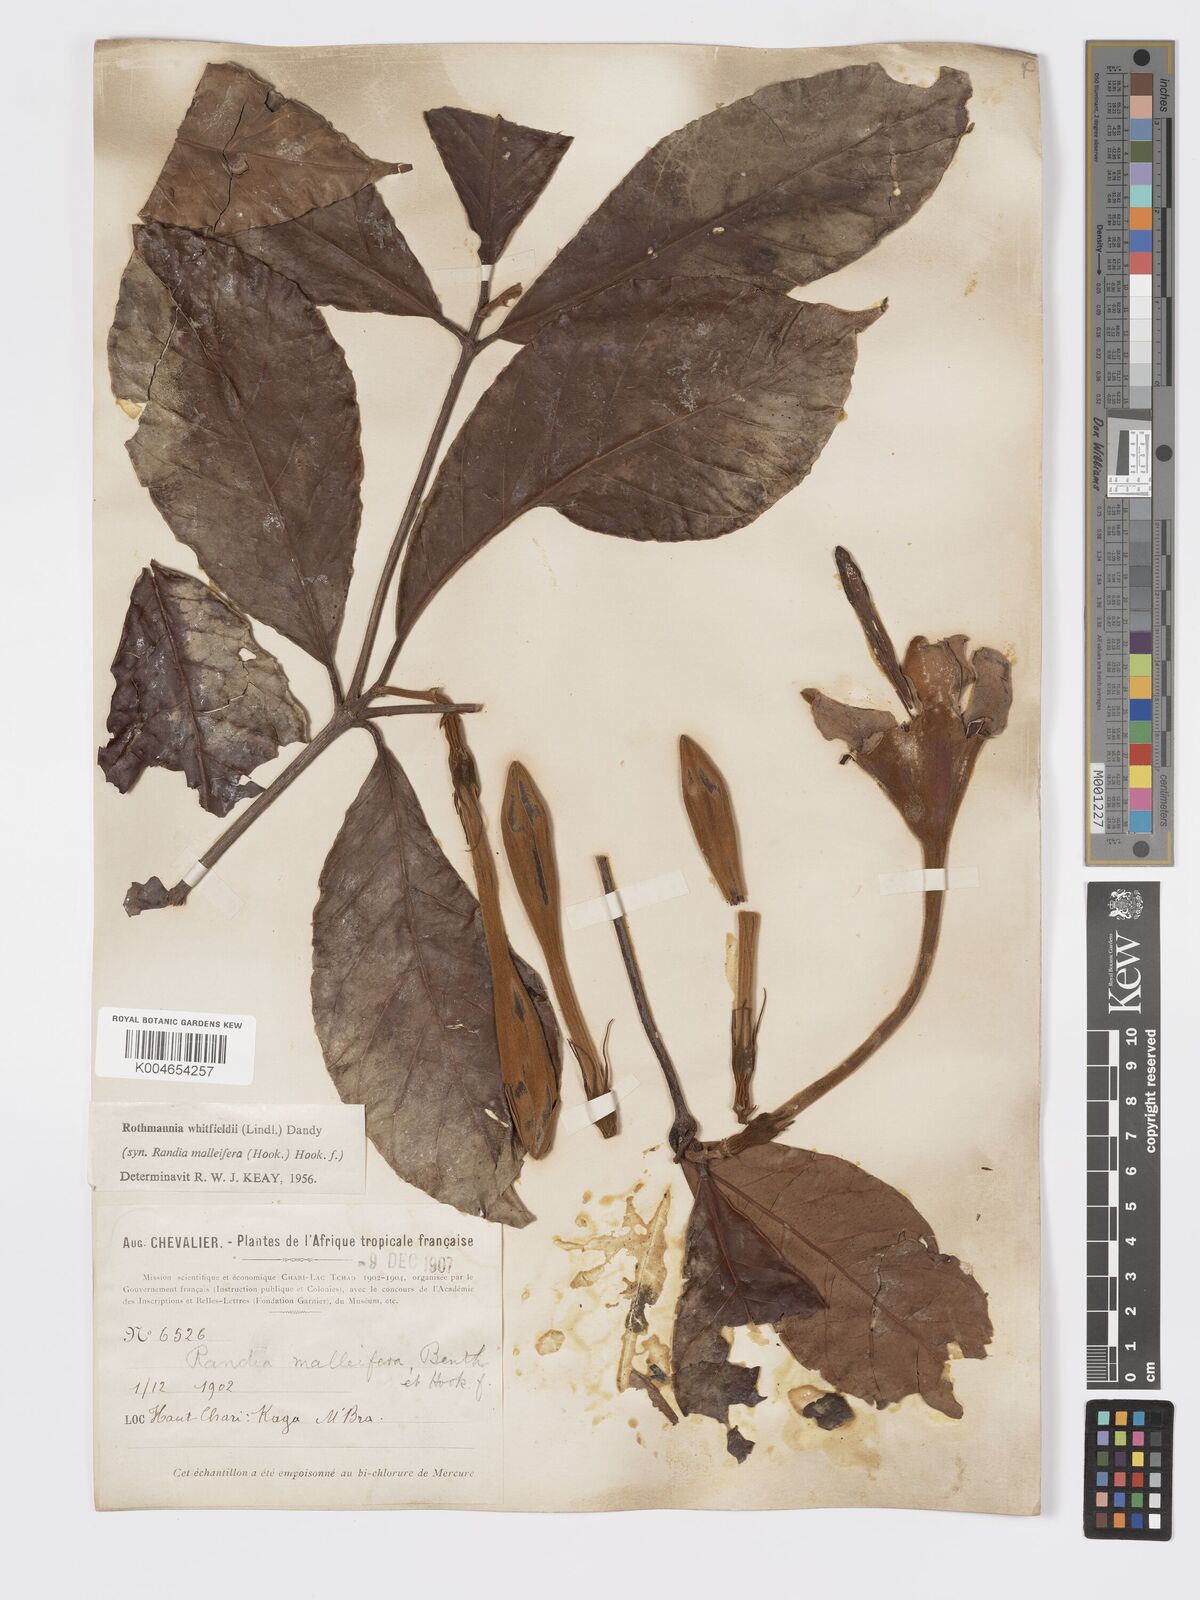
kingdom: Plantae
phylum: Tracheophyta
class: Magnoliopsida
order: Gentianales
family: Rubiaceae
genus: Rothmannia
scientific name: Rothmannia whitfieldii
